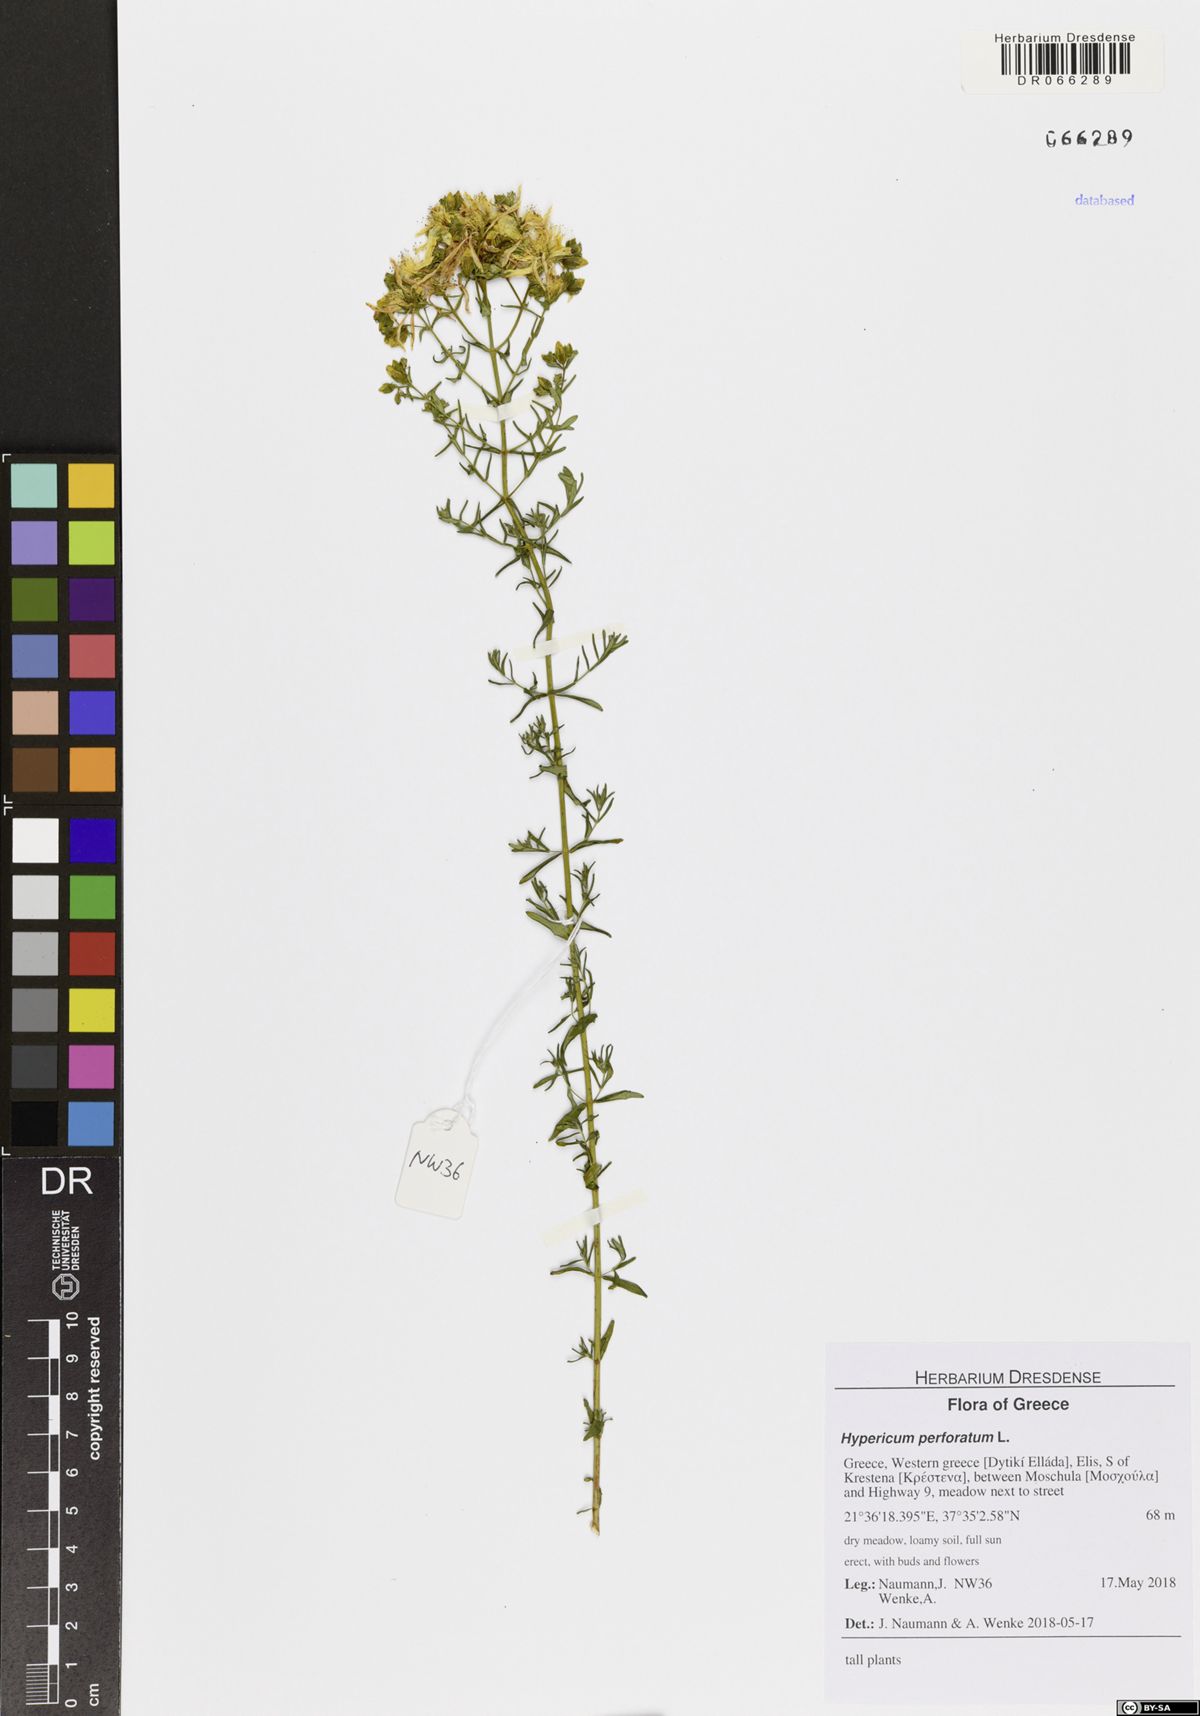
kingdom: Plantae
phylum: Tracheophyta
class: Magnoliopsida
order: Malpighiales
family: Hypericaceae
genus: Hypericum
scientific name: Hypericum perforatum
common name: Common st. johnswort
